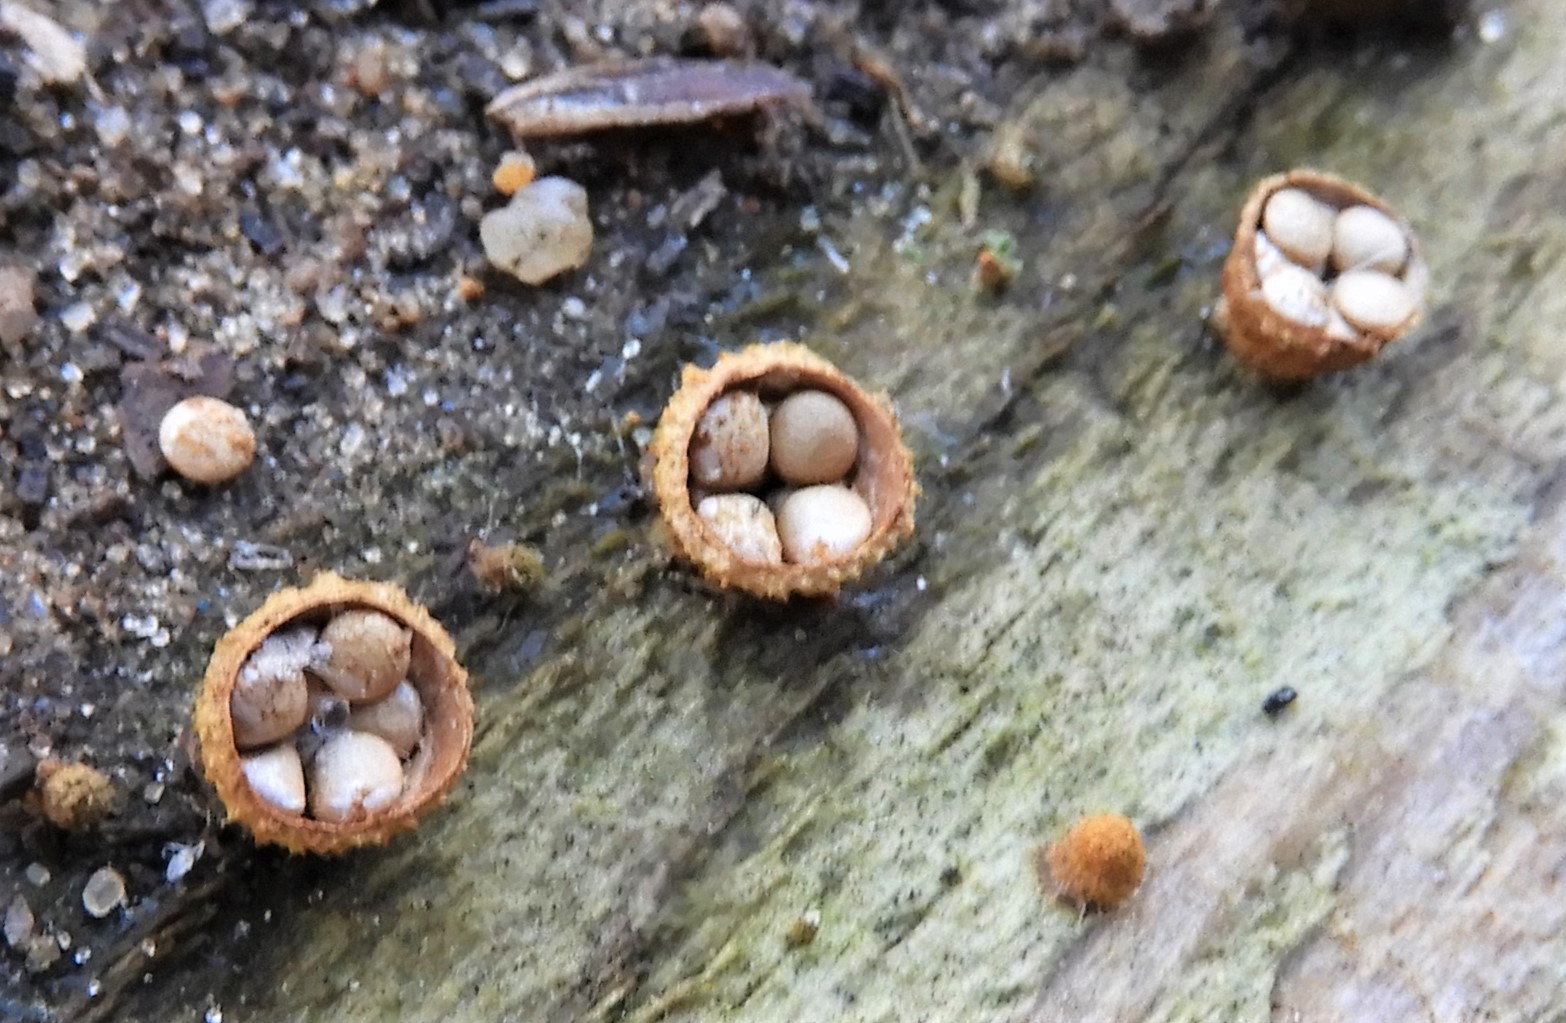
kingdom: Fungi
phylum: Basidiomycota
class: Agaricomycetes
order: Agaricales
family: Nidulariaceae
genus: Crucibulum
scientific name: Crucibulum crucibuliforme
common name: krukkesvamp
